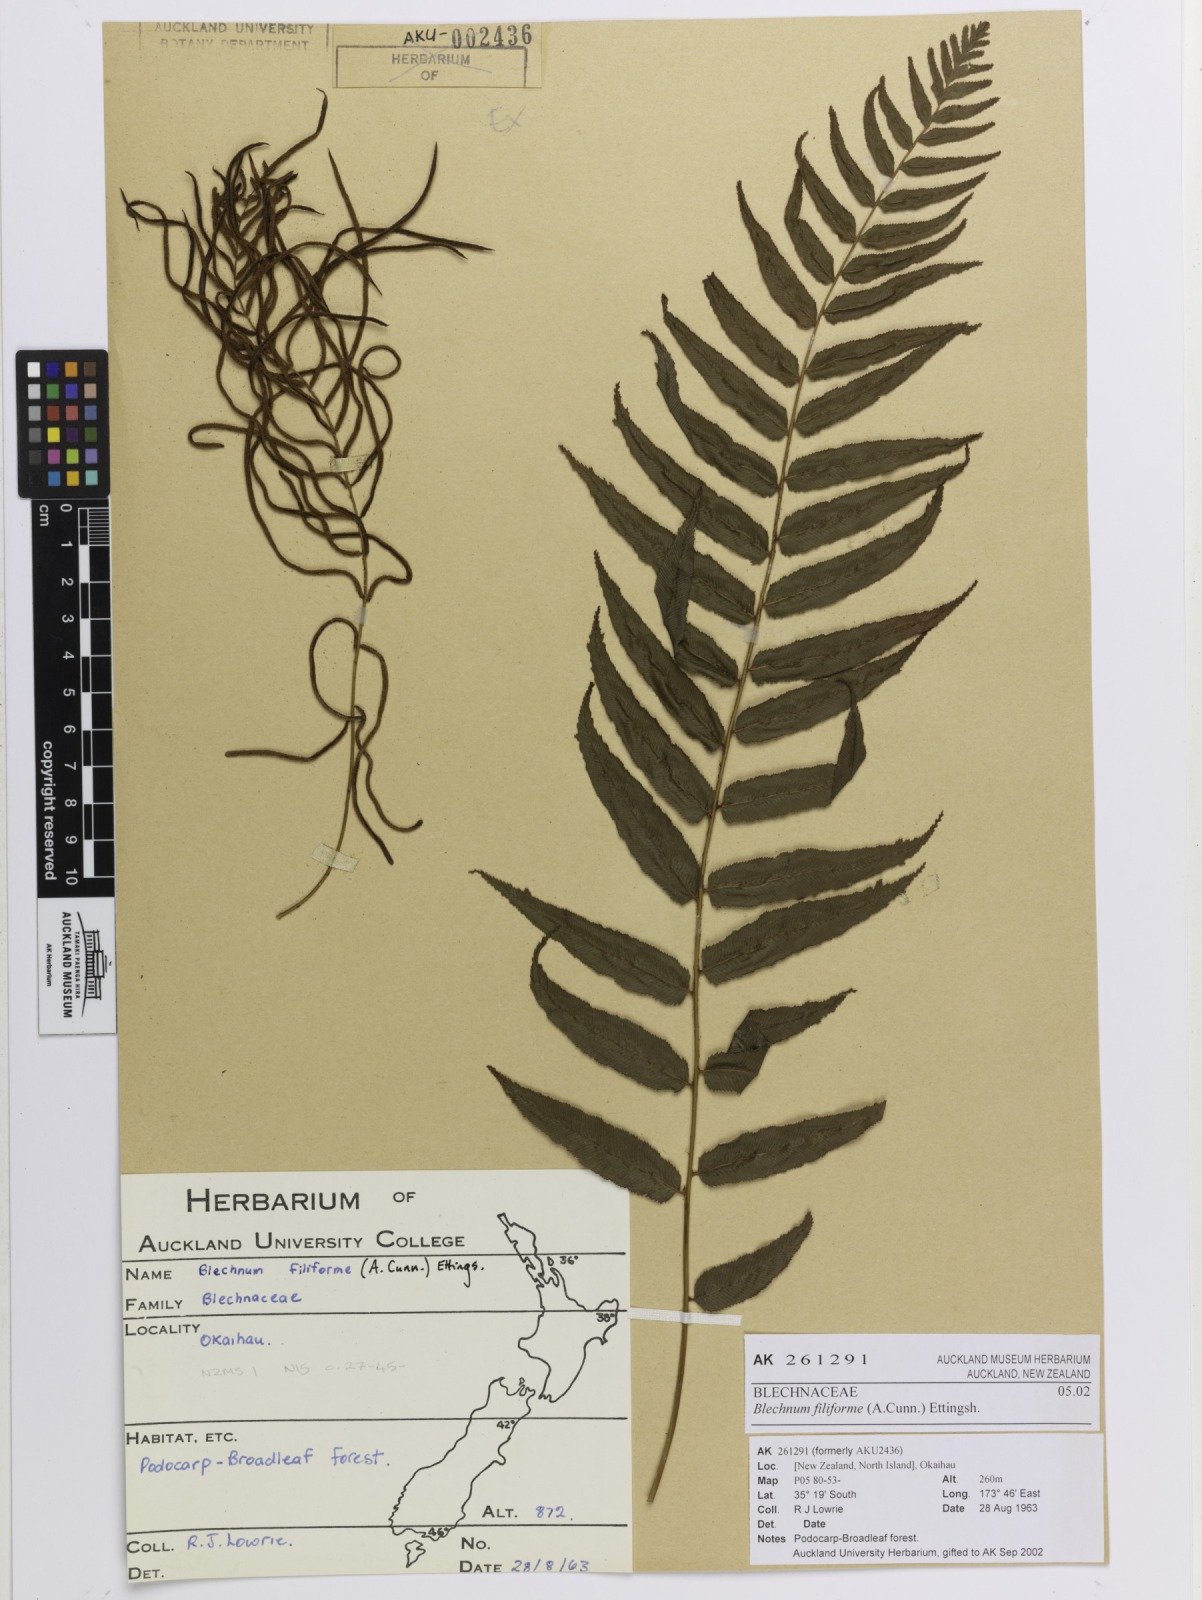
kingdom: Plantae
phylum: Tracheophyta
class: Polypodiopsida
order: Polypodiales
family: Blechnaceae
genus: Icarus
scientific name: Icarus filiformis
